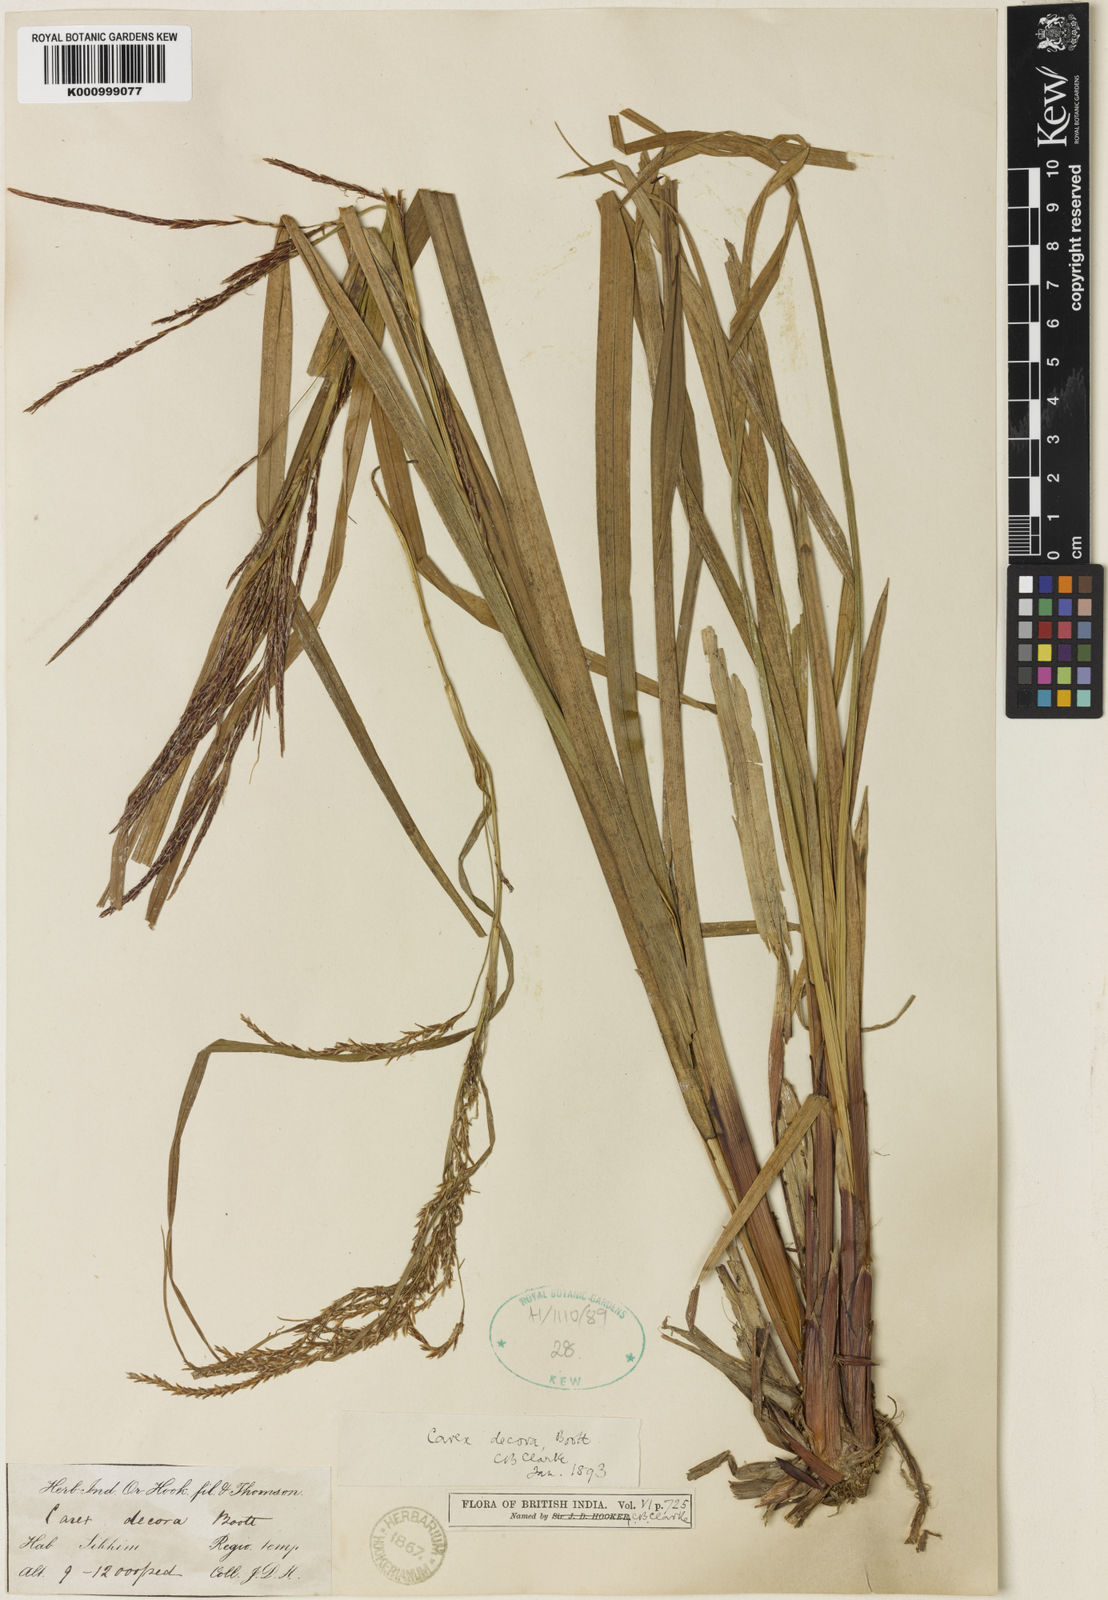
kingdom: Plantae
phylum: Tracheophyta
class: Liliopsida
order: Poales
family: Cyperaceae
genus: Carex
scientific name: Carex decora
